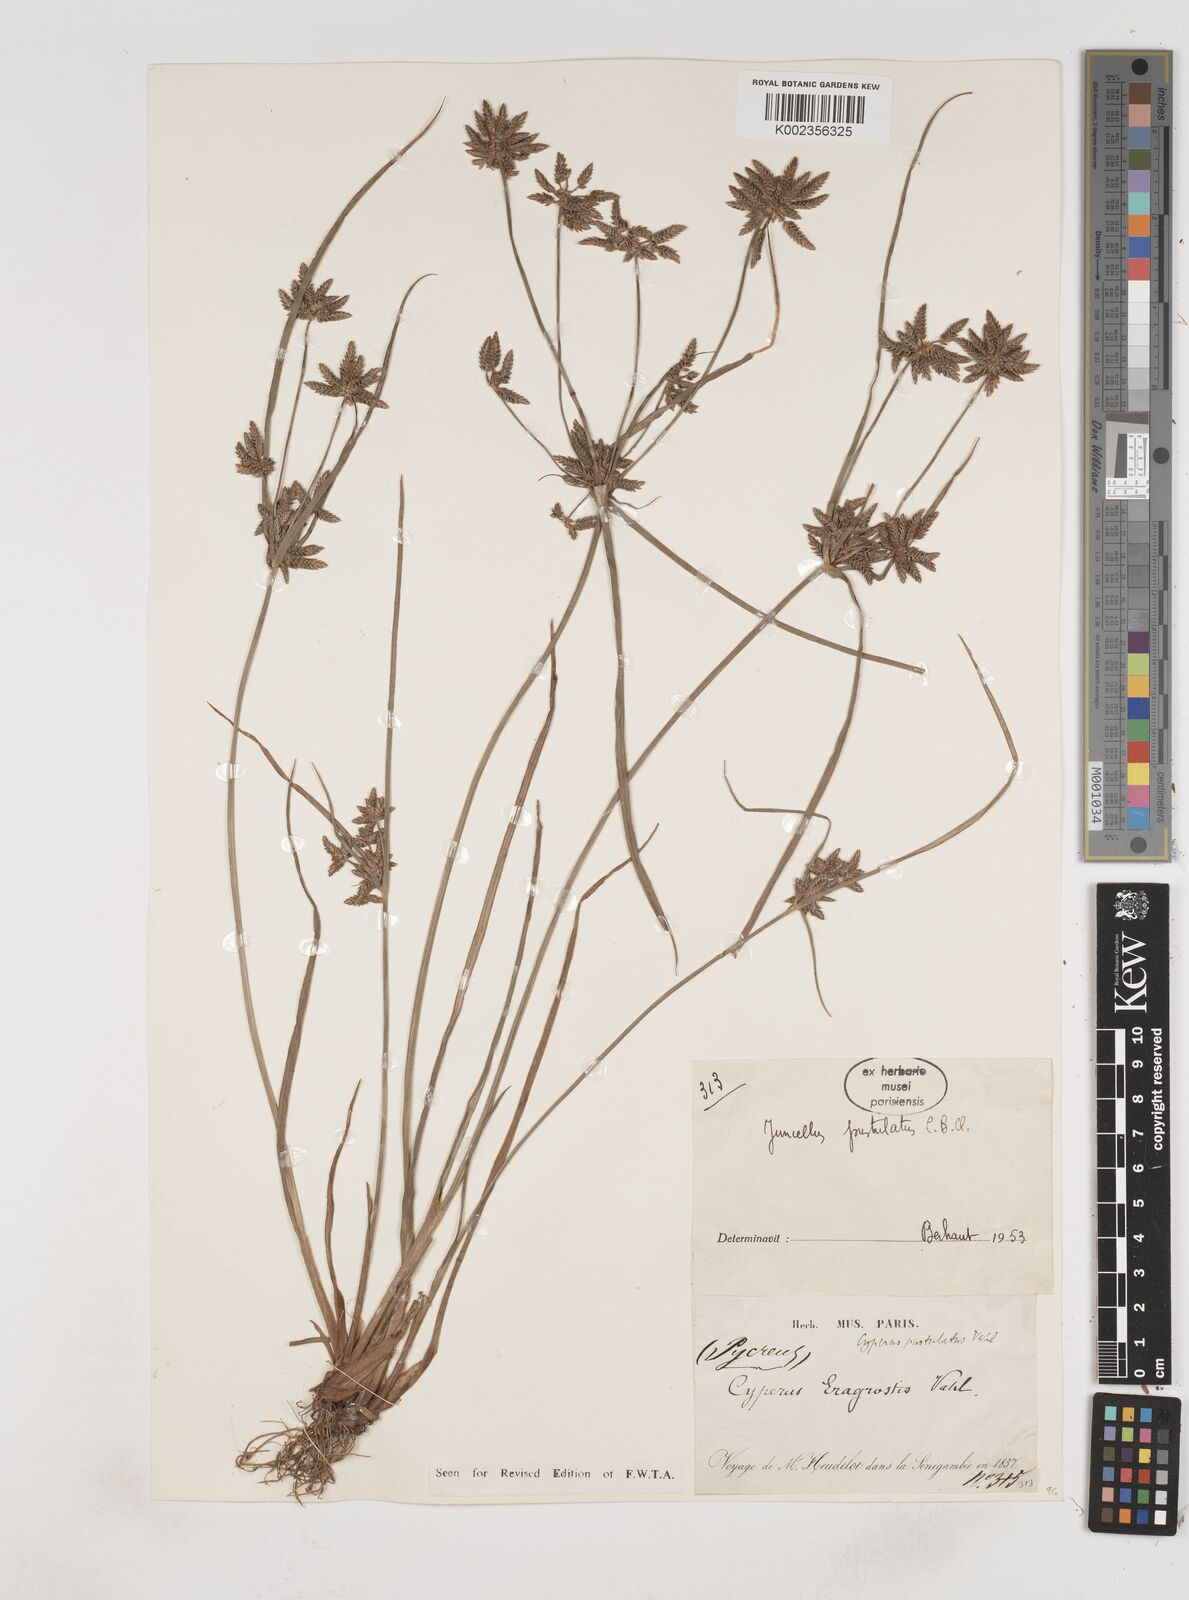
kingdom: Plantae
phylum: Tracheophyta
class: Liliopsida
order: Poales
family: Cyperaceae
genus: Cyperus
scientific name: Cyperus pustulatus
